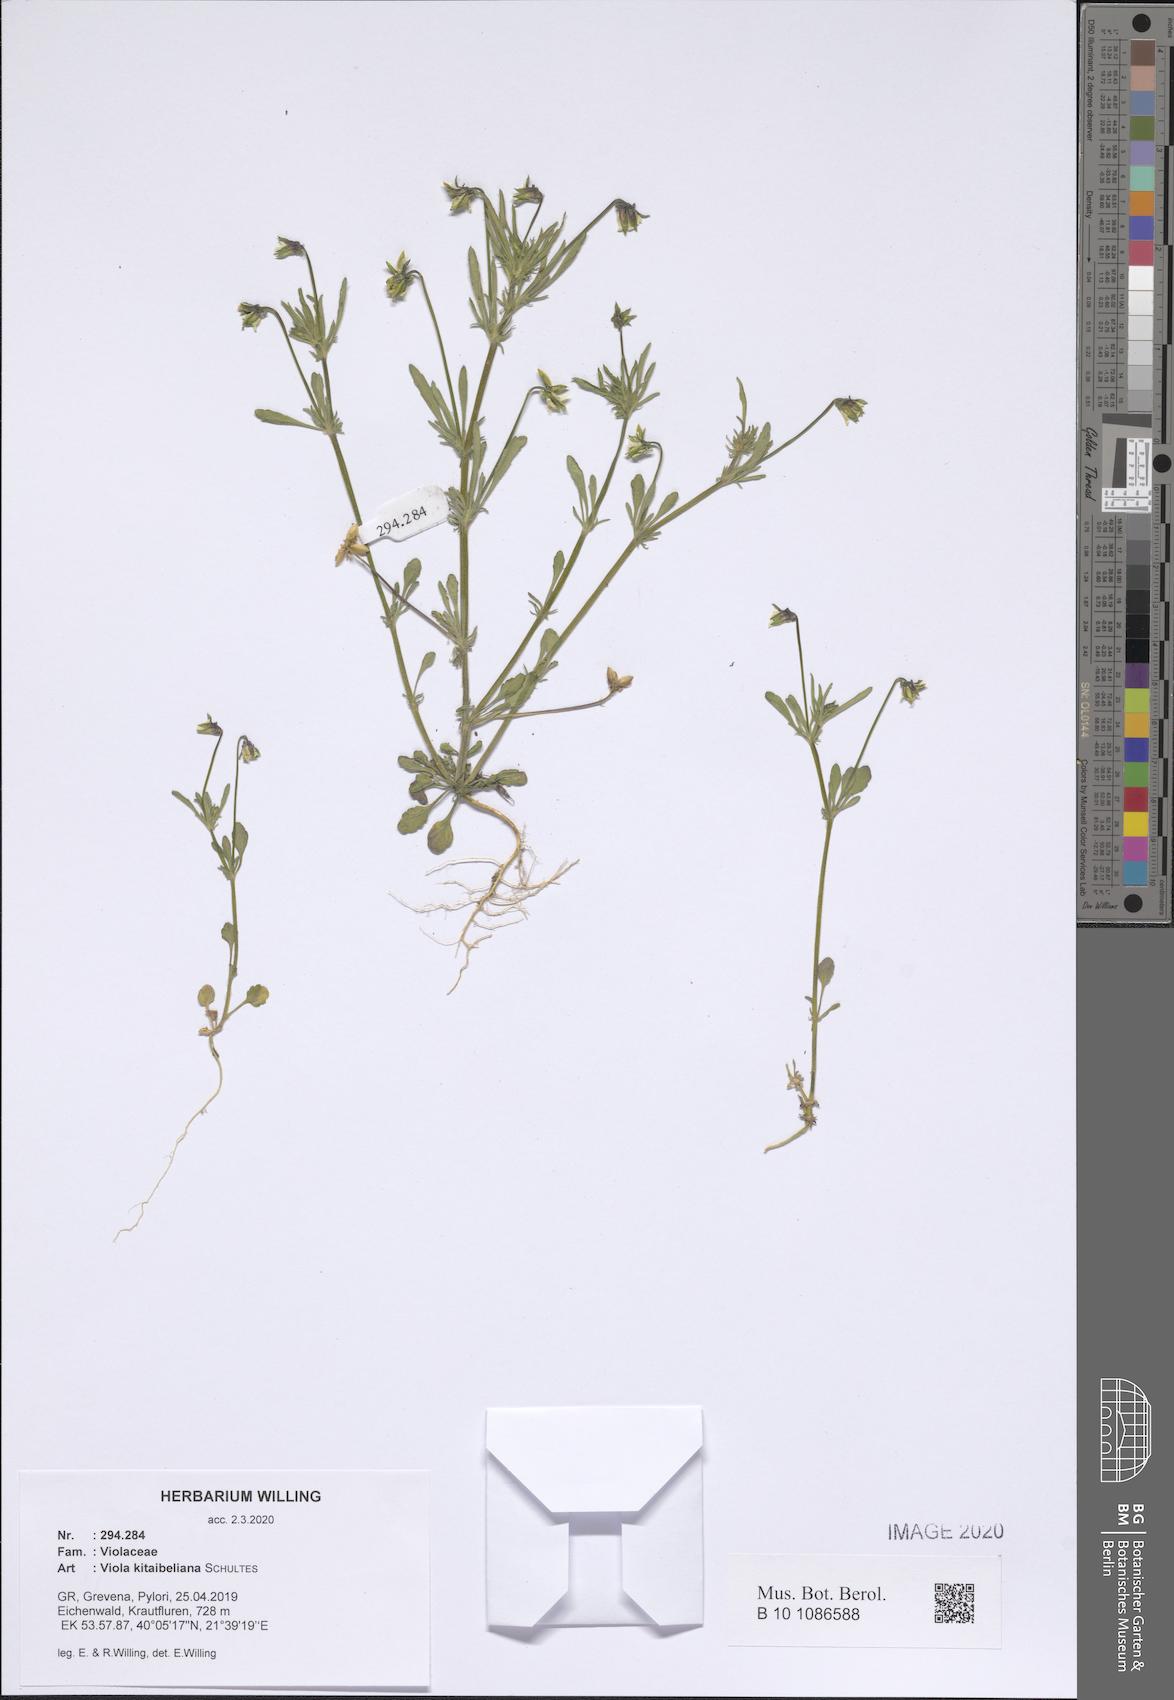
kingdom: Plantae
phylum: Tracheophyta
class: Magnoliopsida
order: Malpighiales
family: Violaceae
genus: Viola
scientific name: Viola kitaibeliana
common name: Dwarf pansy
